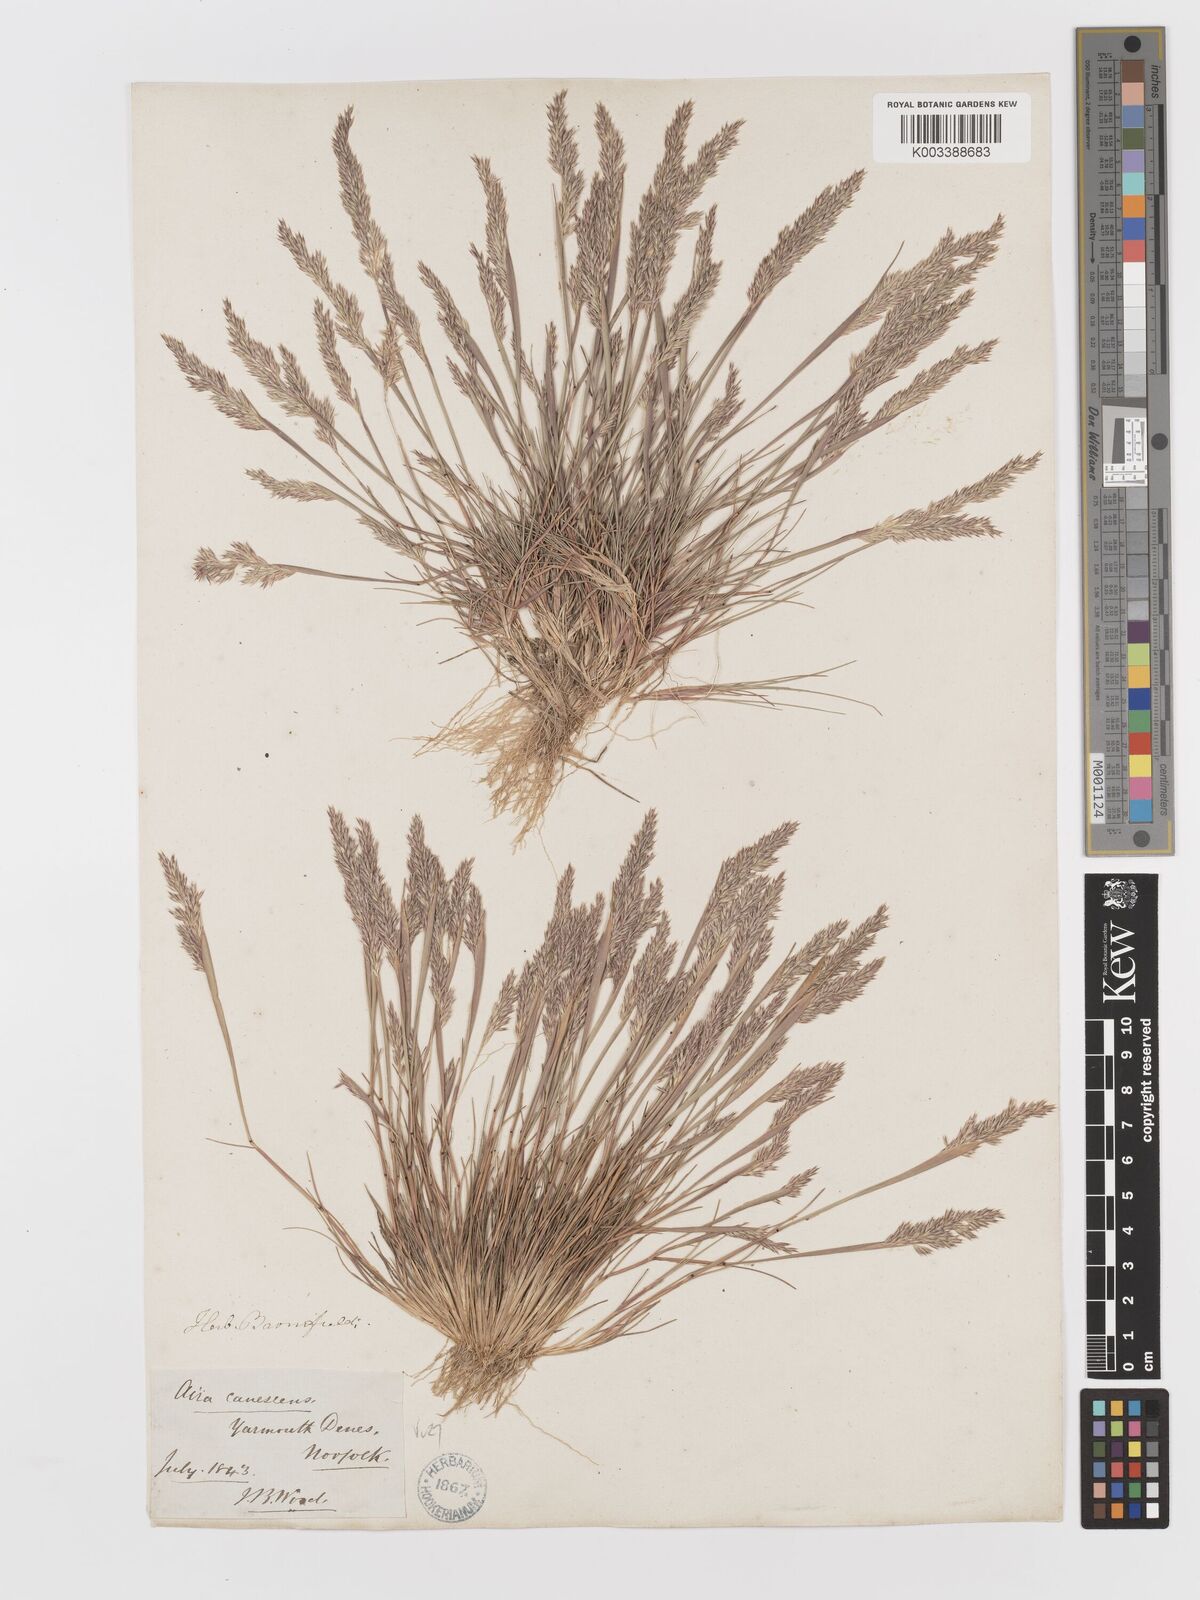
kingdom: Plantae
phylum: Tracheophyta
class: Liliopsida
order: Poales
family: Poaceae
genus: Corynephorus
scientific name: Corynephorus canescens
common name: Grey hair-grass
